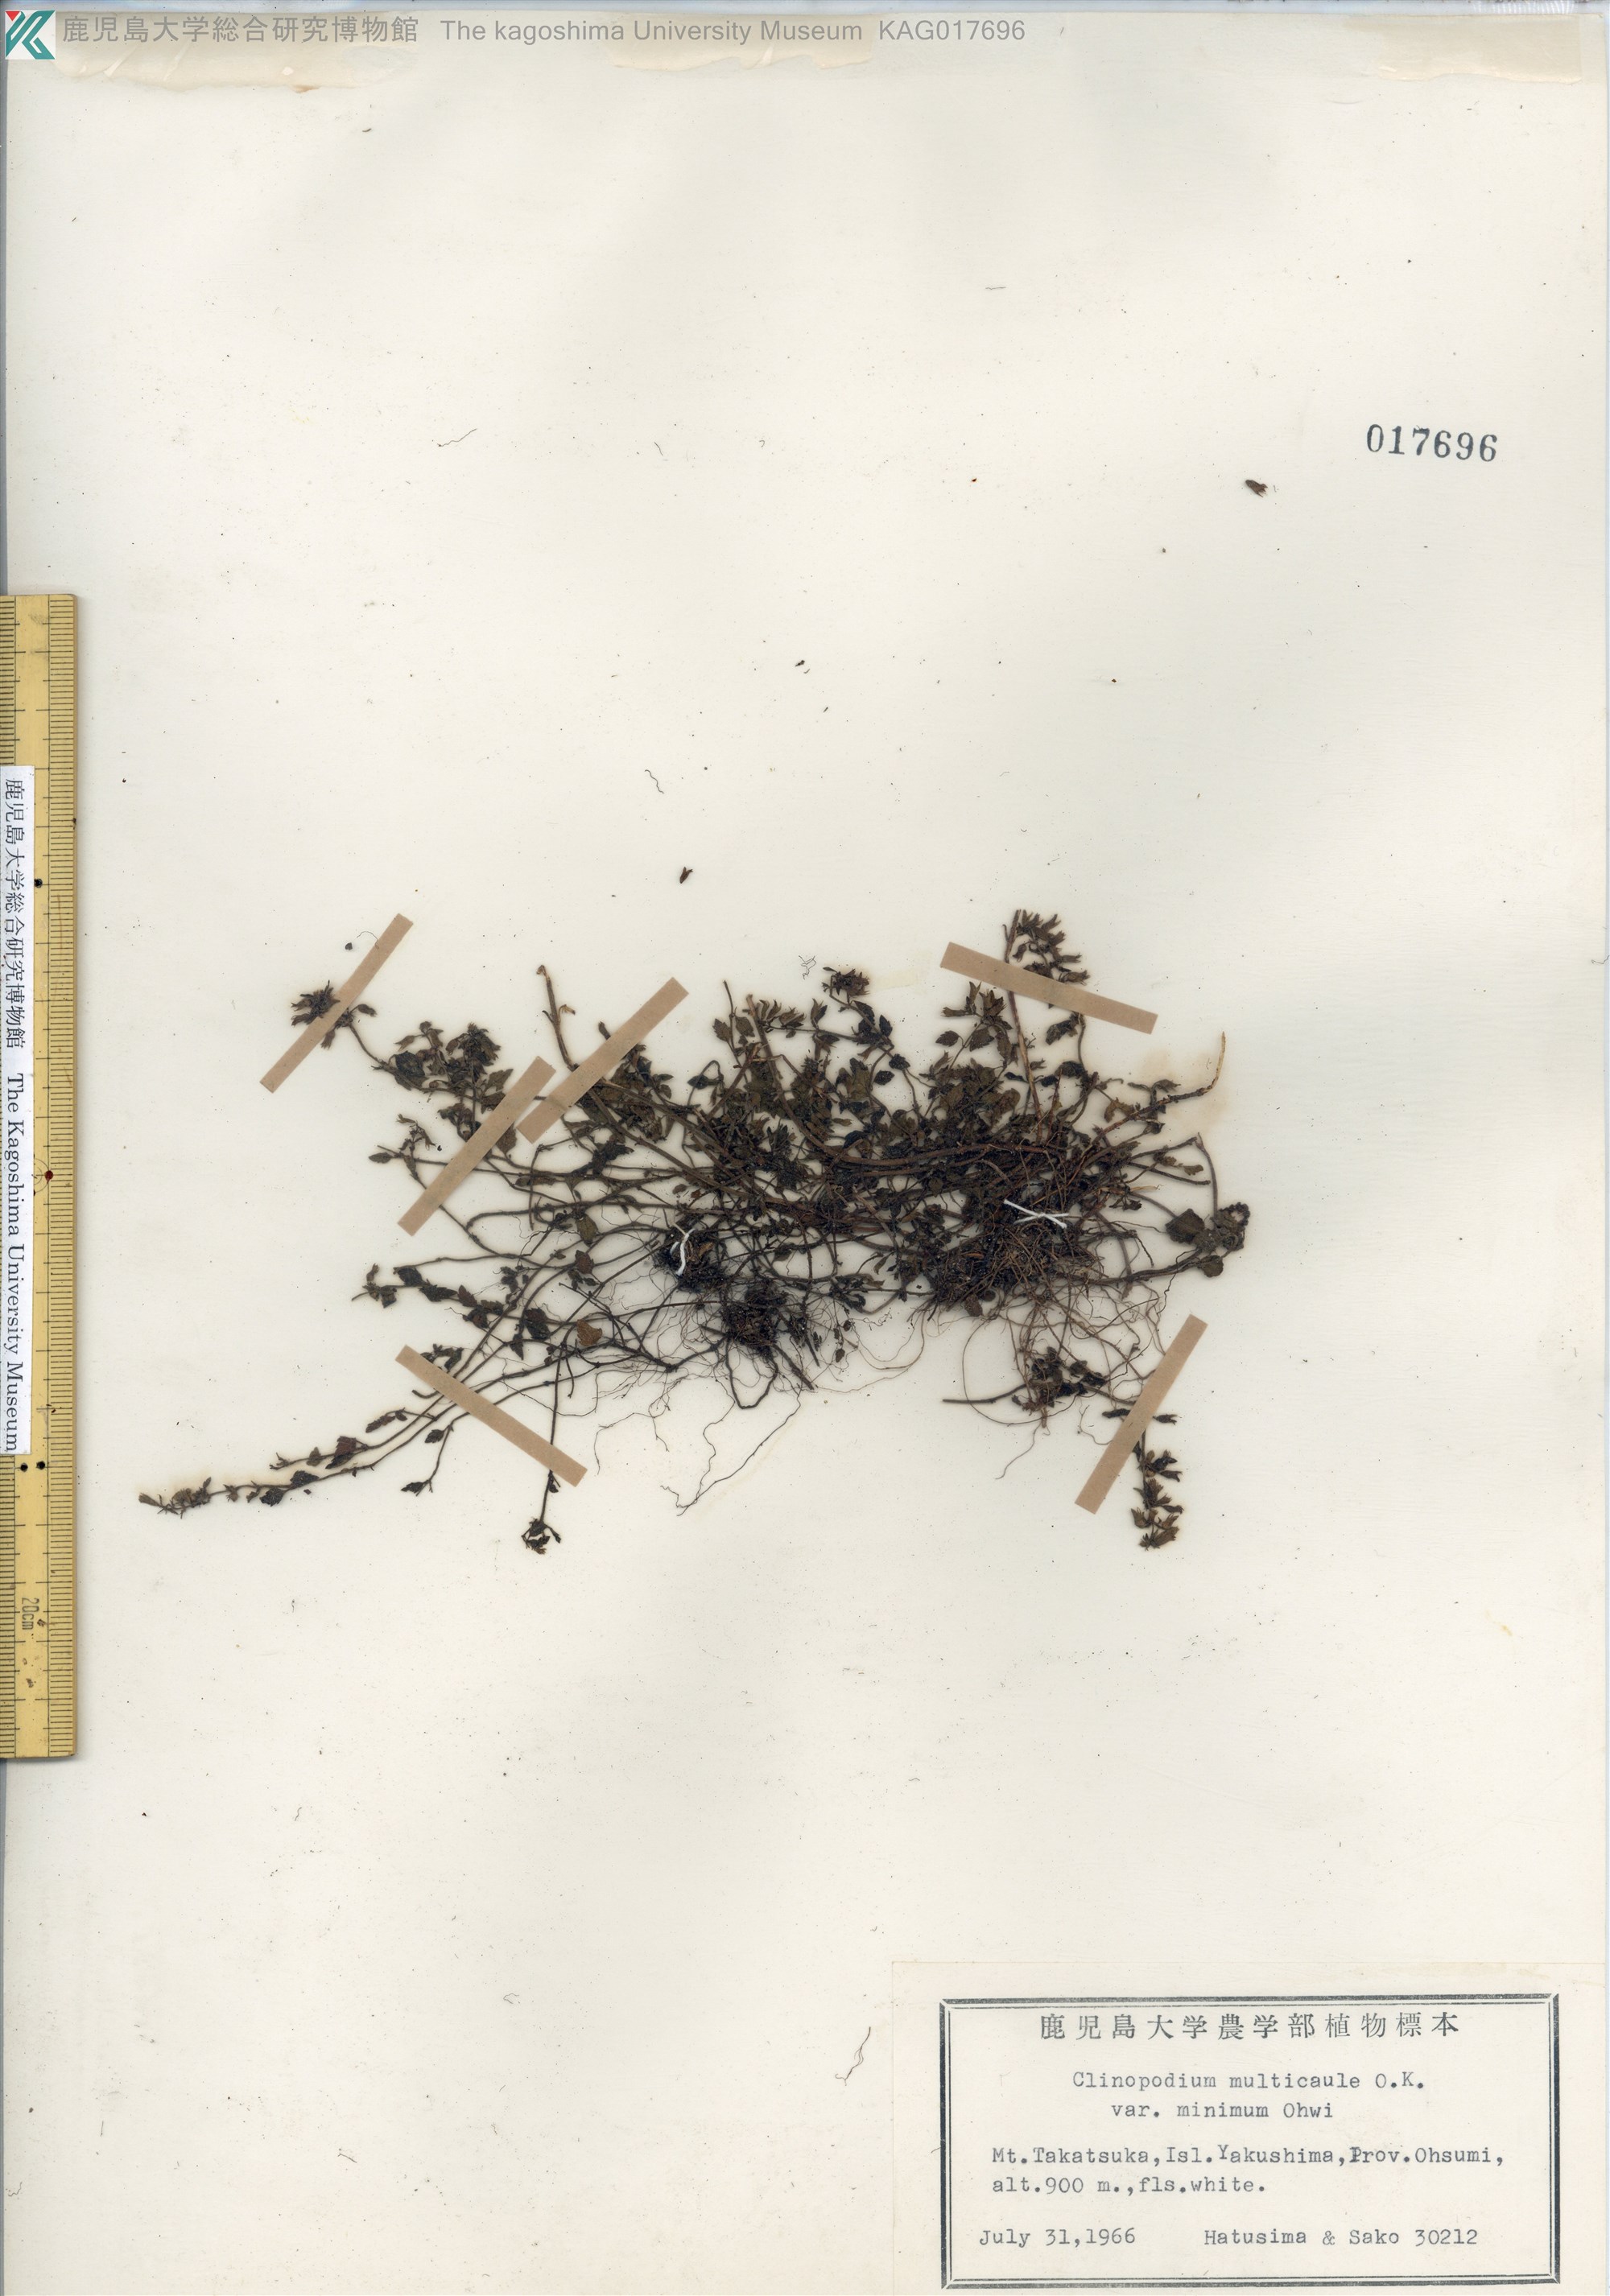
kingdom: Plantae
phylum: Tracheophyta
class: Magnoliopsida
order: Lamiales
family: Lamiaceae
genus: Clinopodium
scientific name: Clinopodium multicaule
